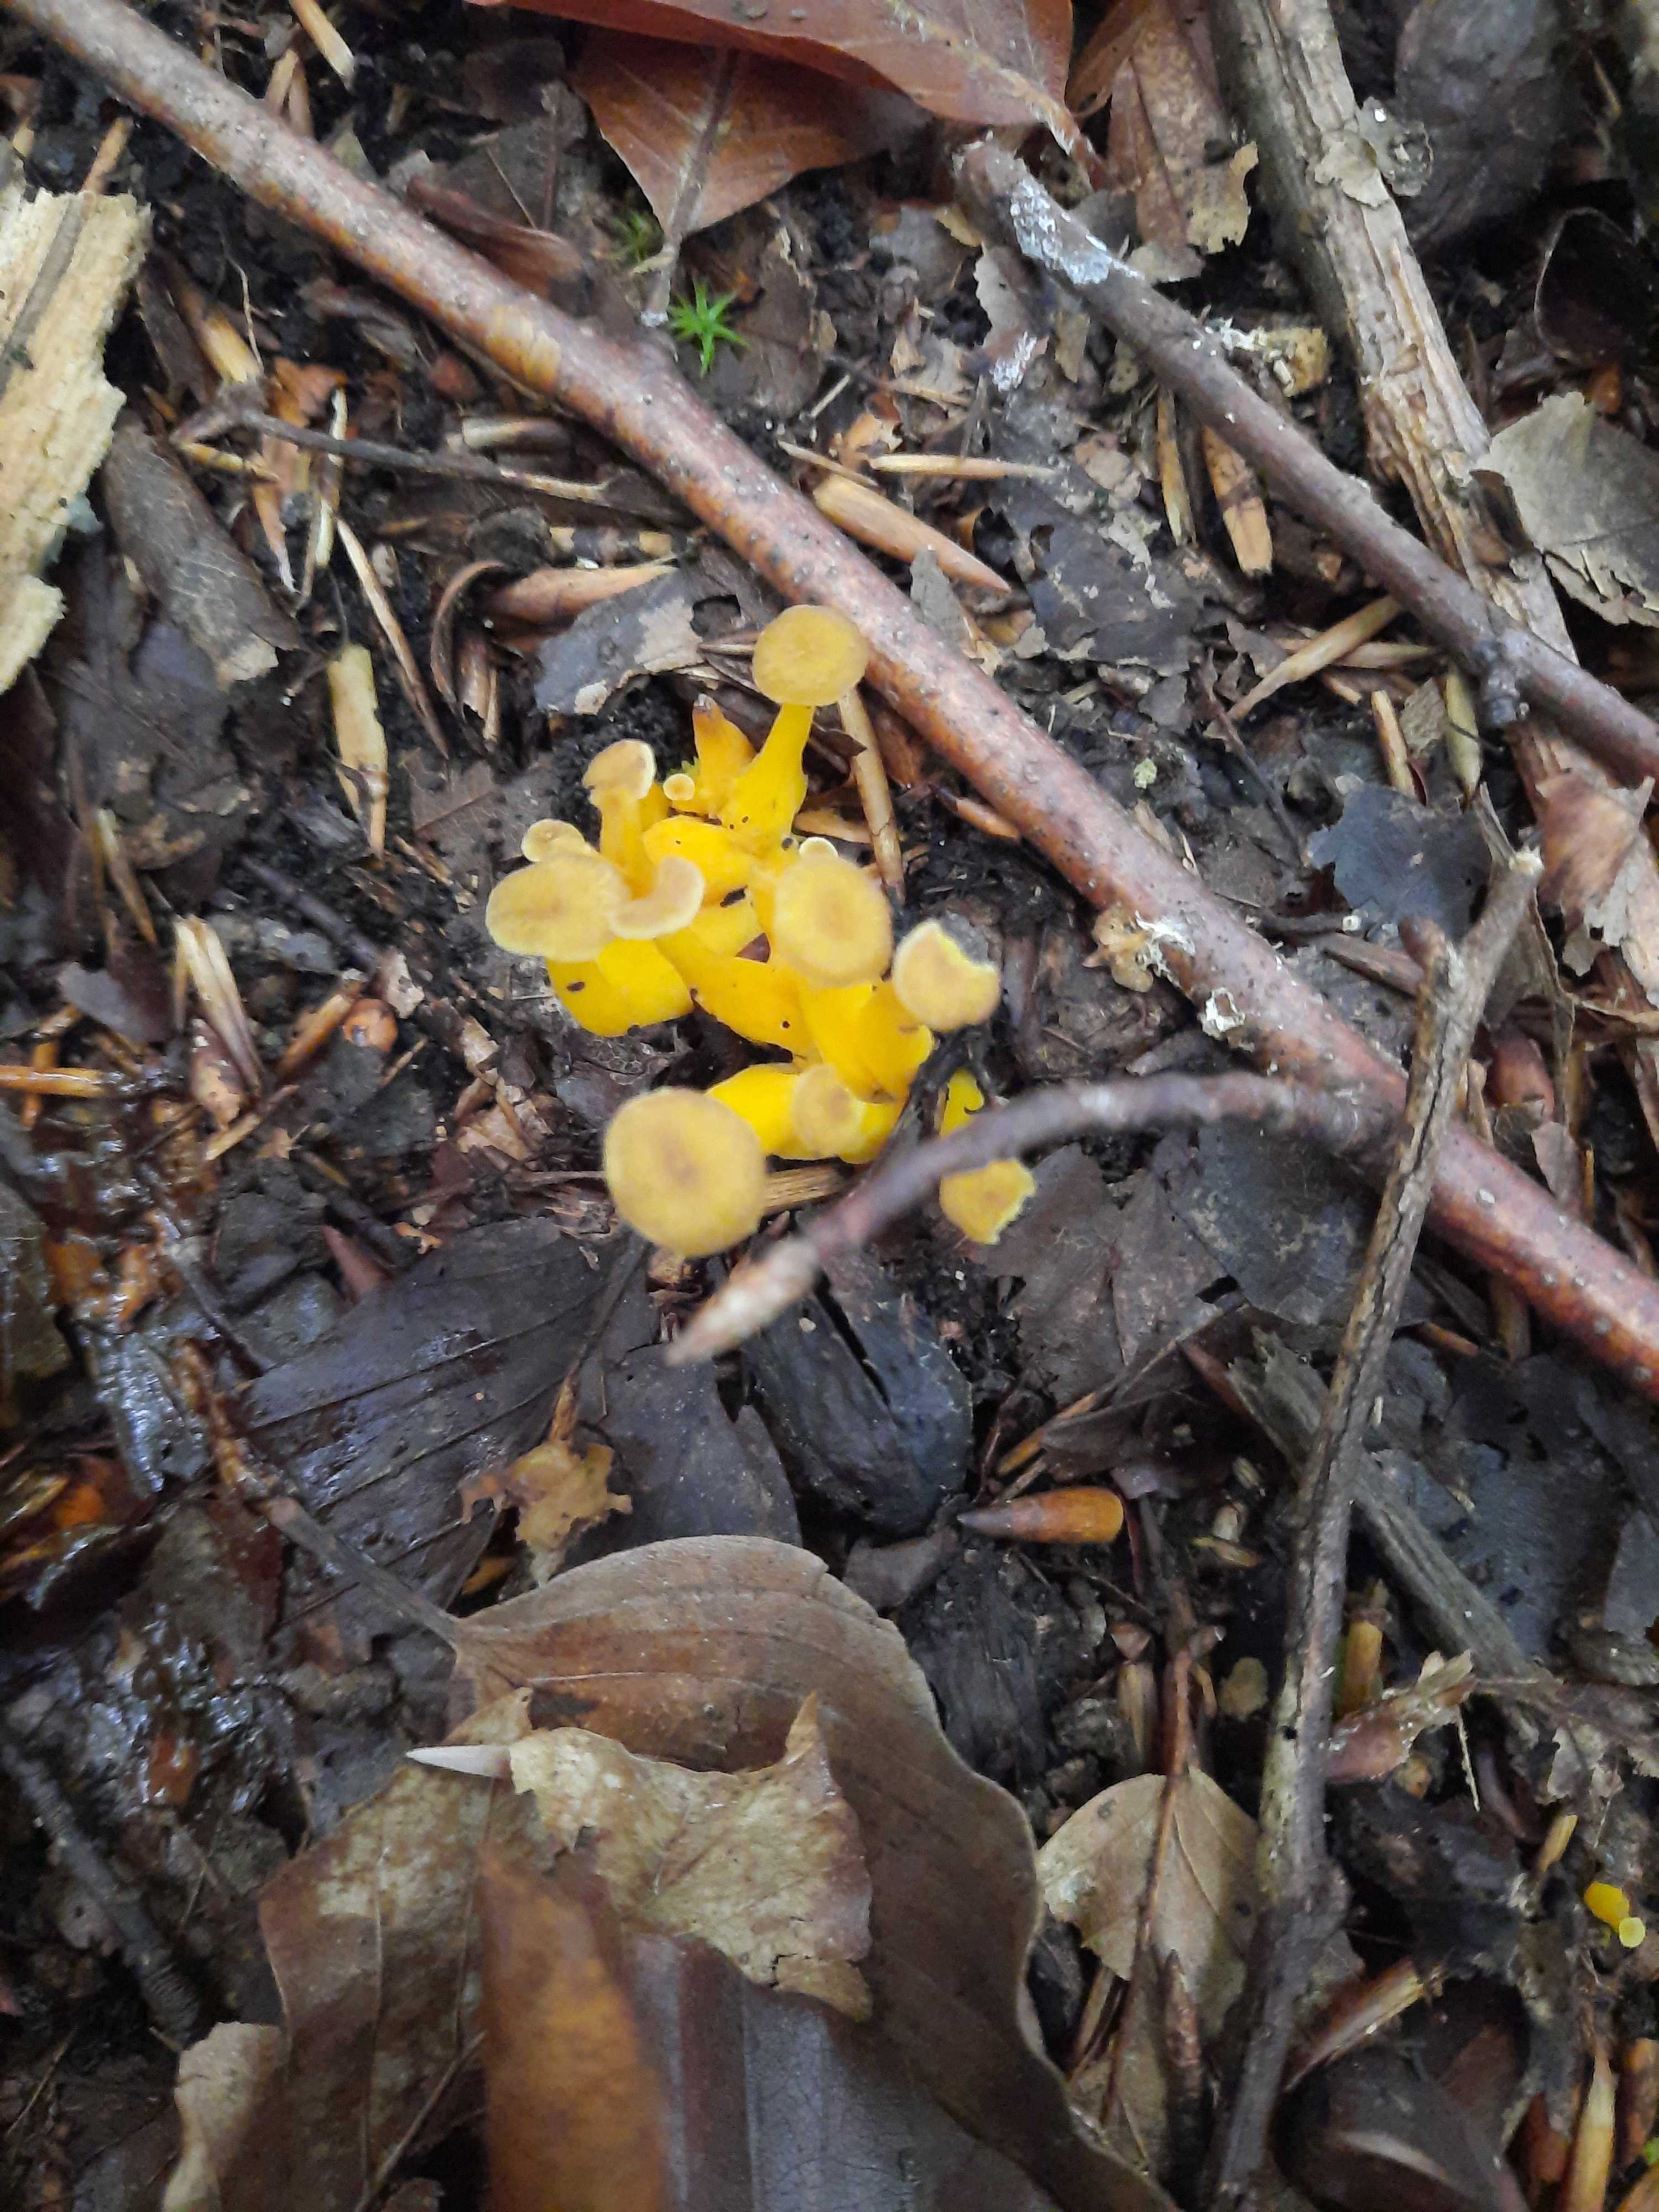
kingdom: Fungi
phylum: Basidiomycota
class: Agaricomycetes
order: Cantharellales
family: Hydnaceae
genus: Craterellus
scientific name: Craterellus tubaeformis
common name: tragt-kantarel
